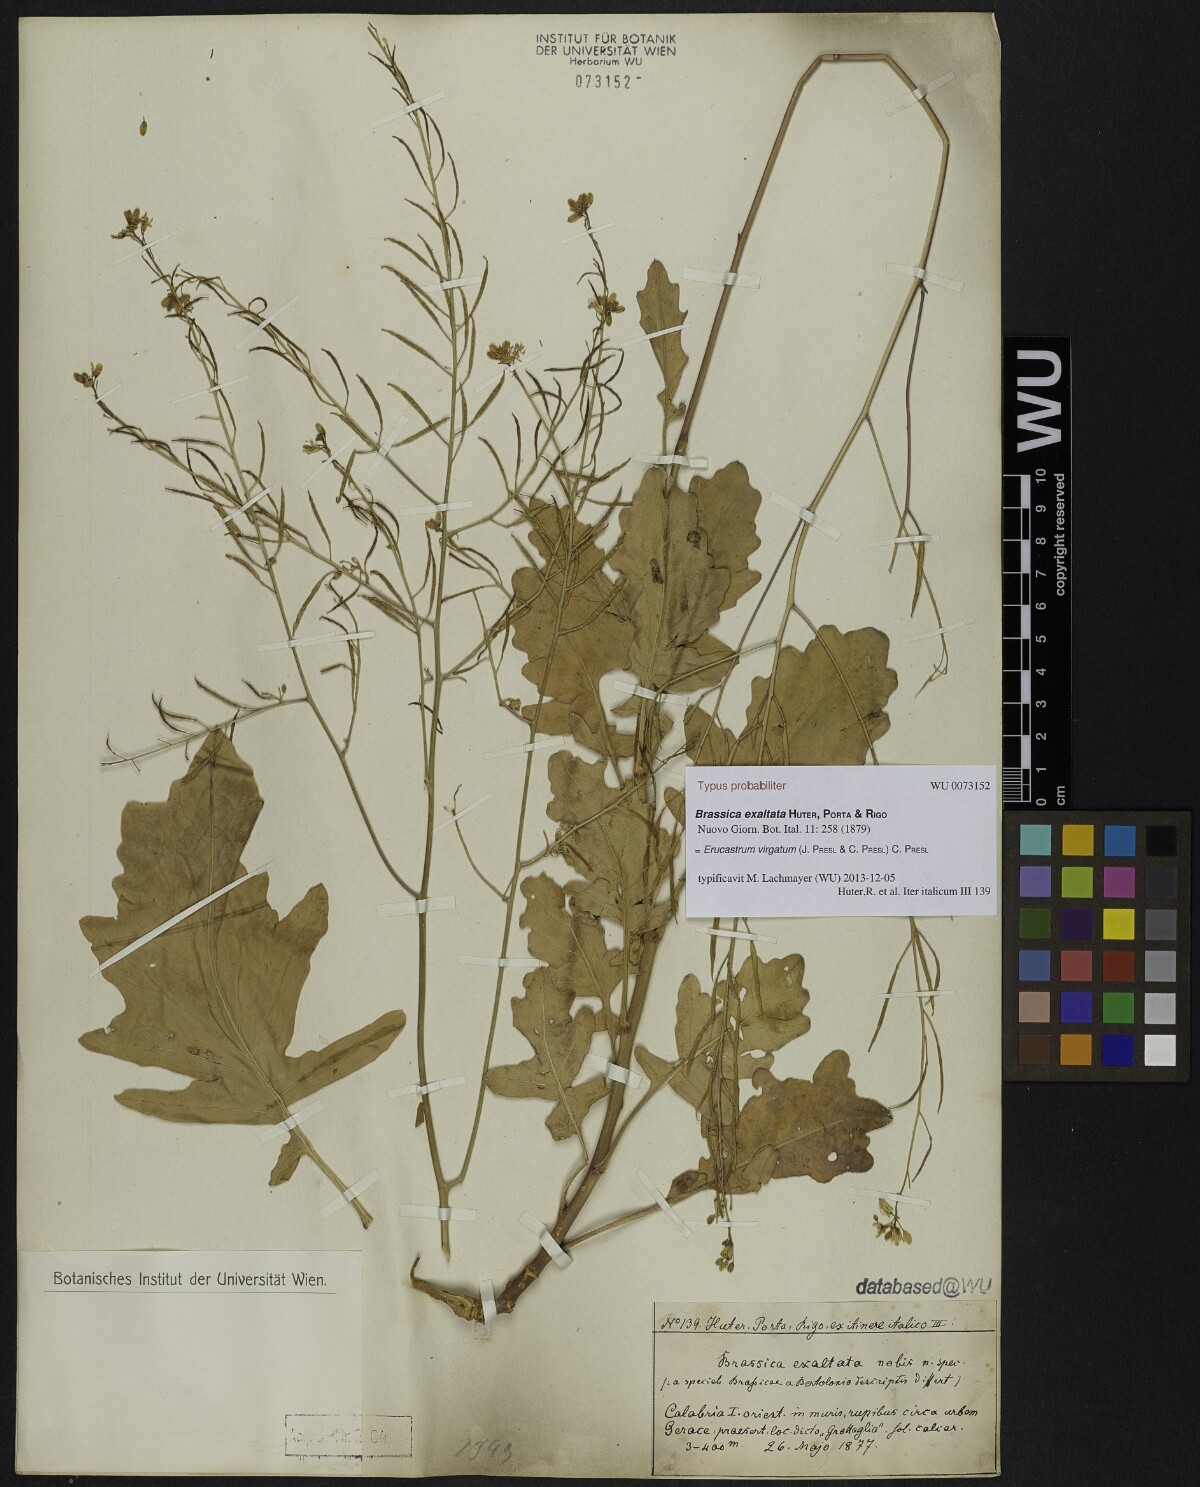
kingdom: Plantae
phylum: Tracheophyta
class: Magnoliopsida
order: Brassicales
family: Brassicaceae
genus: Erucastrum
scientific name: Erucastrum virgatum
